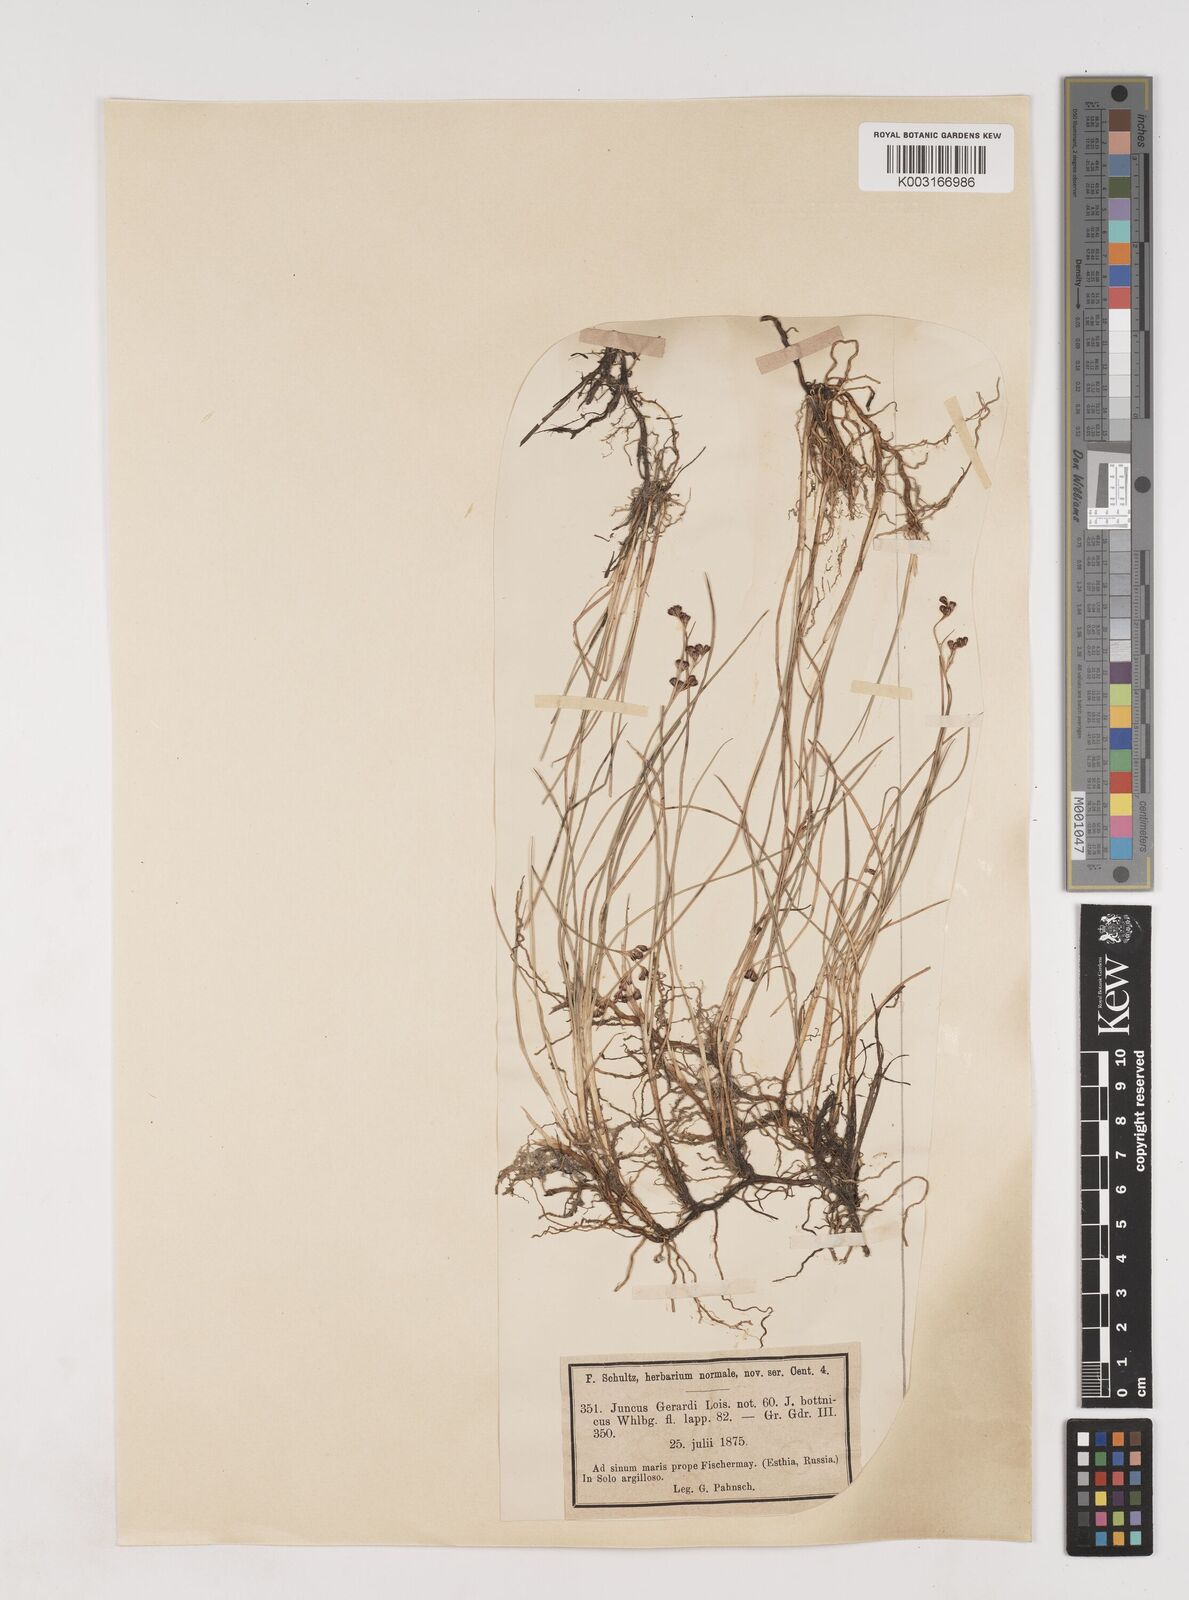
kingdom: Plantae
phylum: Tracheophyta
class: Liliopsida
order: Poales
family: Juncaceae
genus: Juncus
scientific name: Juncus gerardi
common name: Saltmarsh rush
